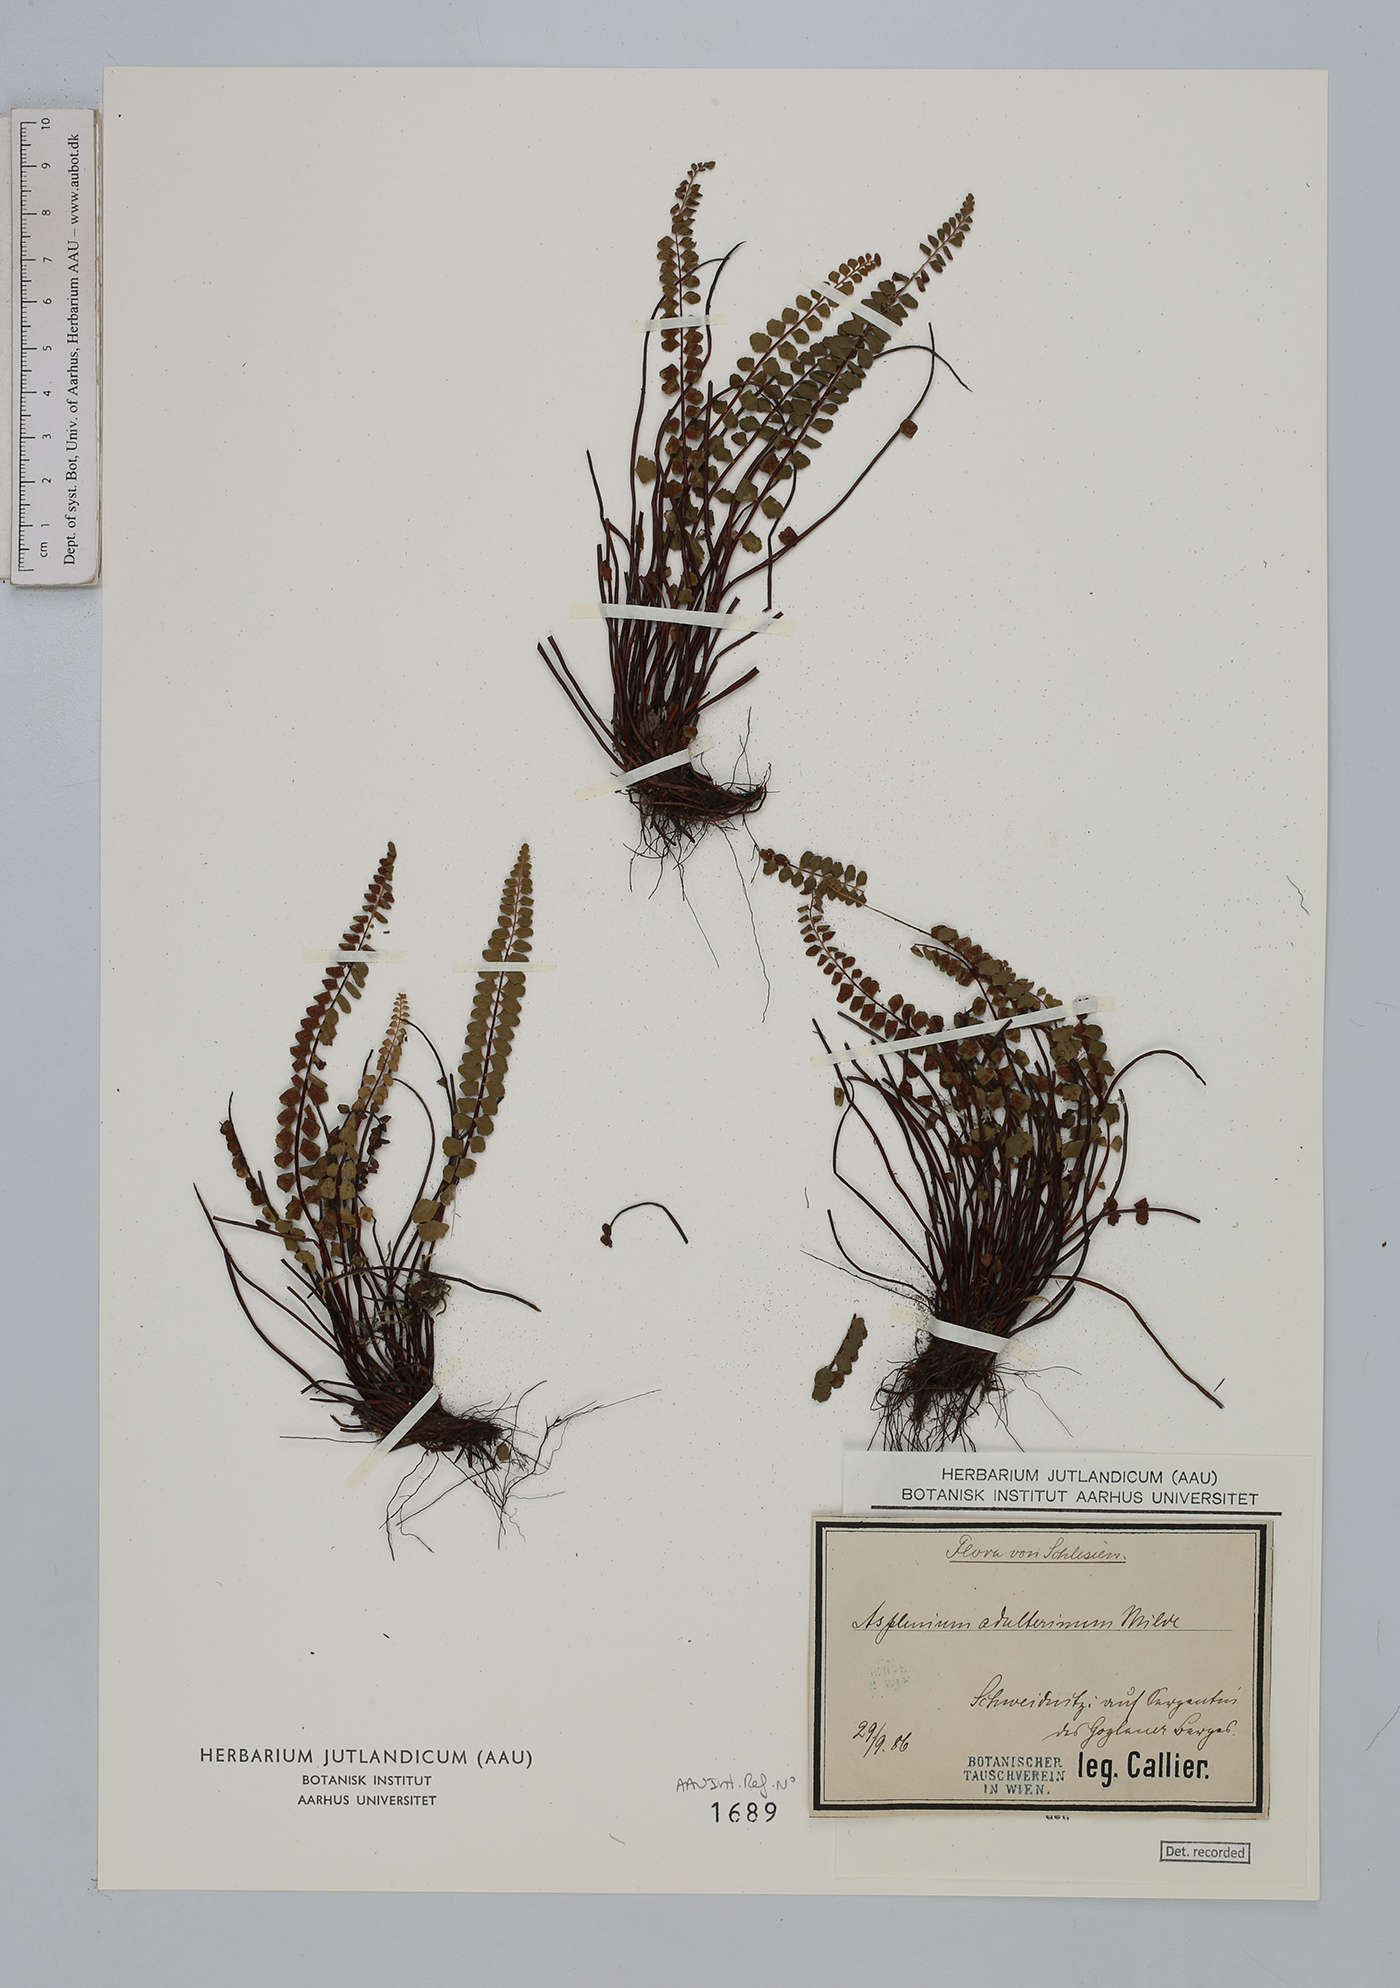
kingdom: Plantae
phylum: Tracheophyta
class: Polypodiopsida
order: Polypodiales
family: Aspleniaceae
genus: Asplenium
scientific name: Asplenium adulterinum
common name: Adulterated spleenwort
